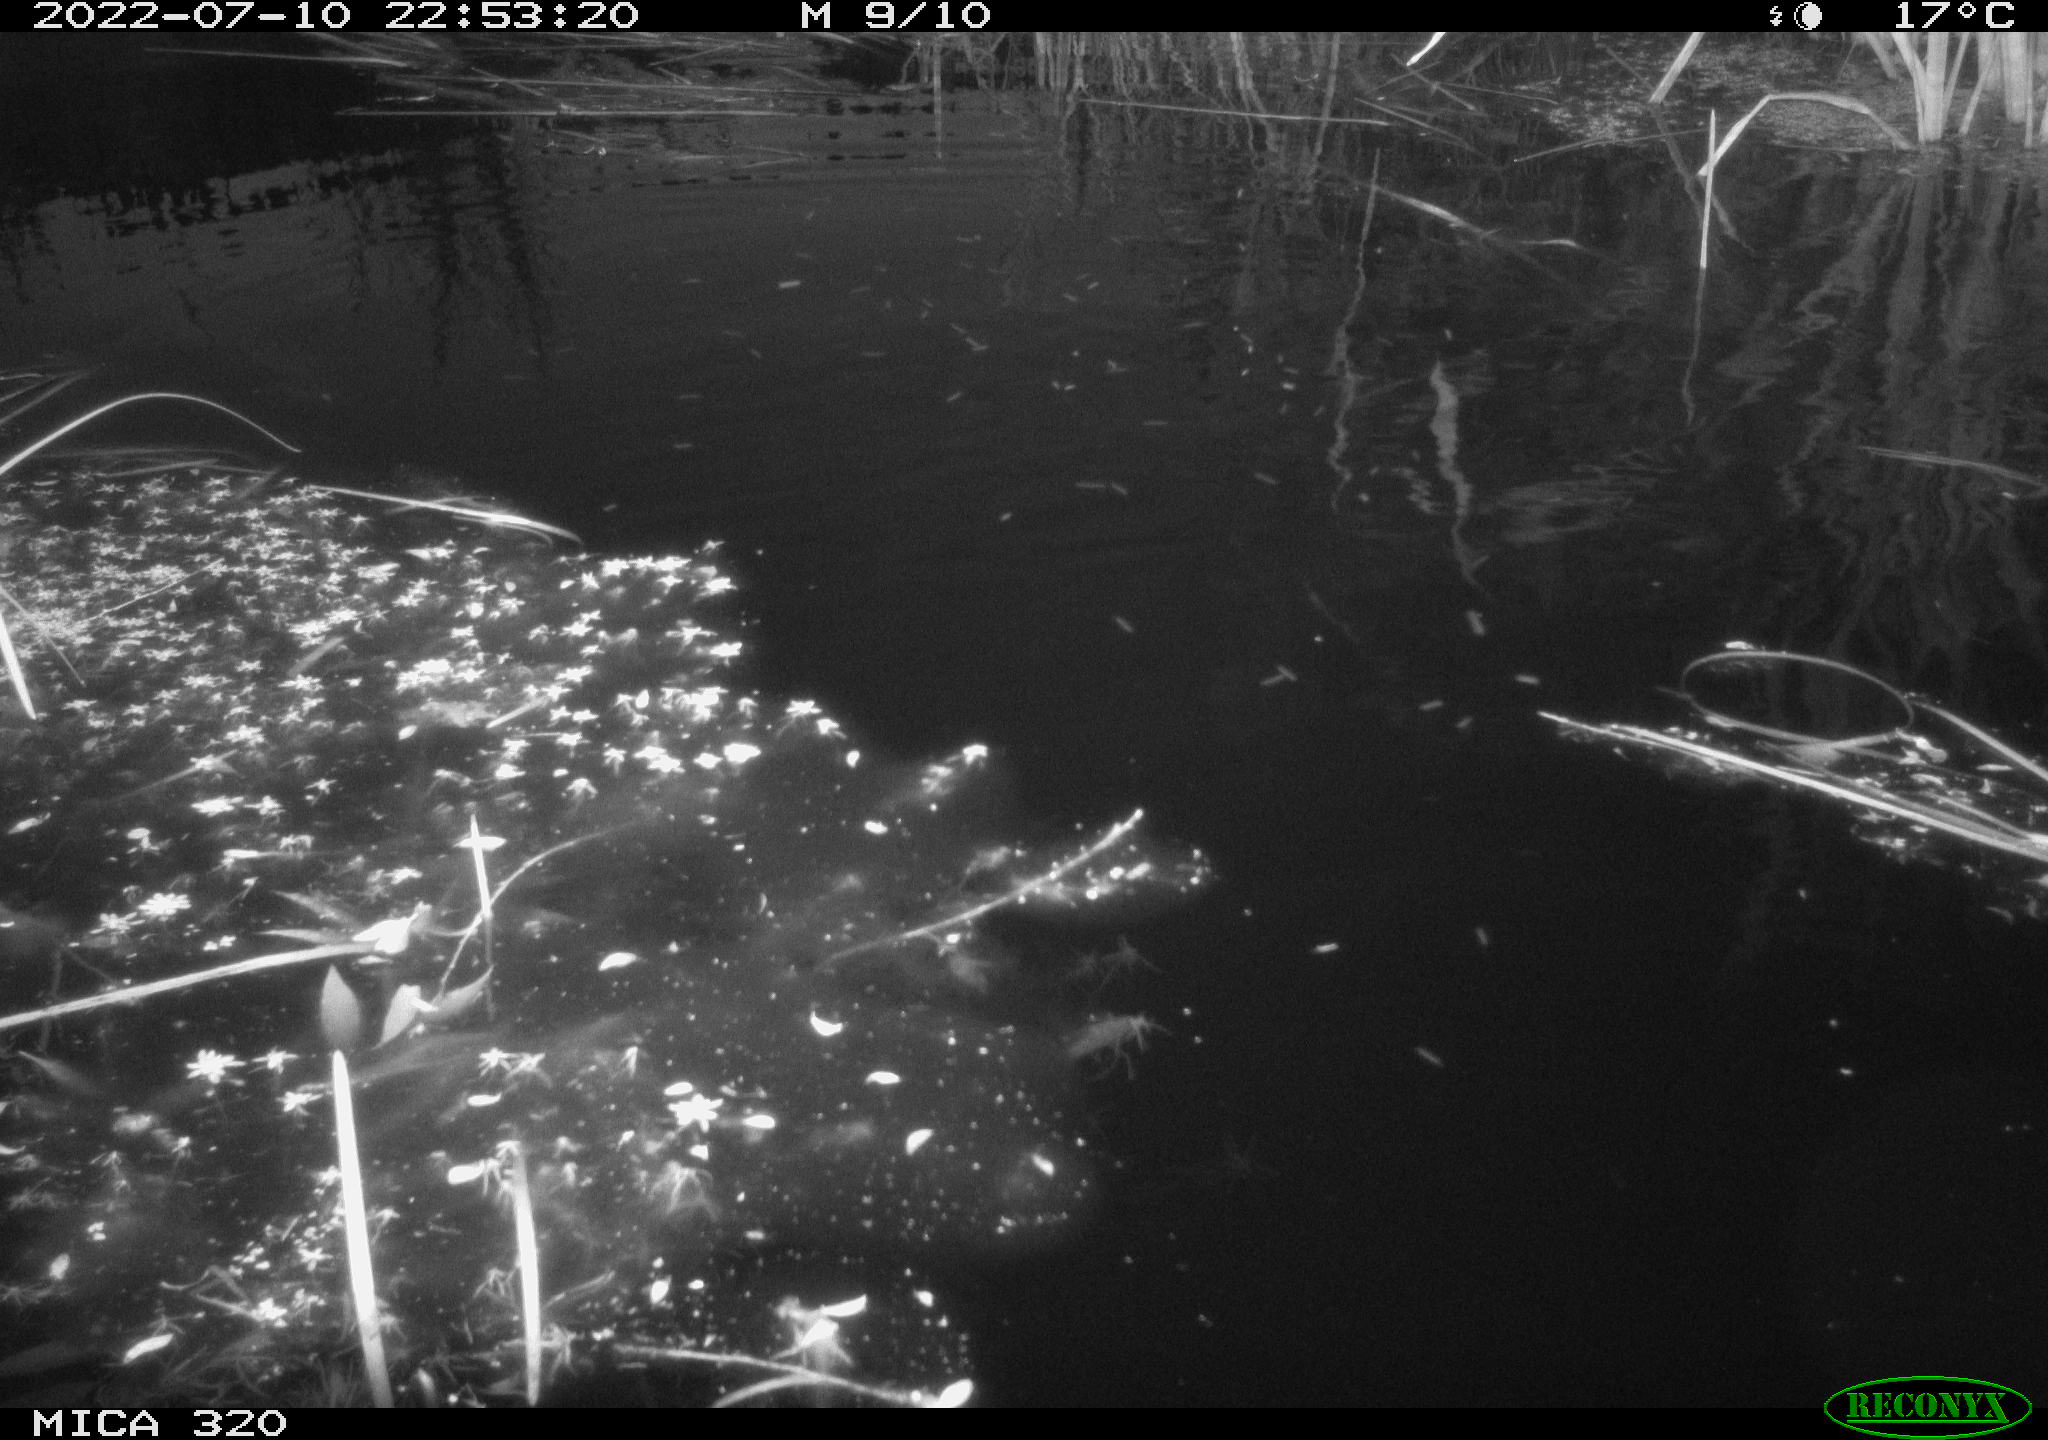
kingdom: Animalia
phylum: Chordata
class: Aves
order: Anseriformes
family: Anatidae
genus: Anas
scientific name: Anas platyrhynchos
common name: Mallard
